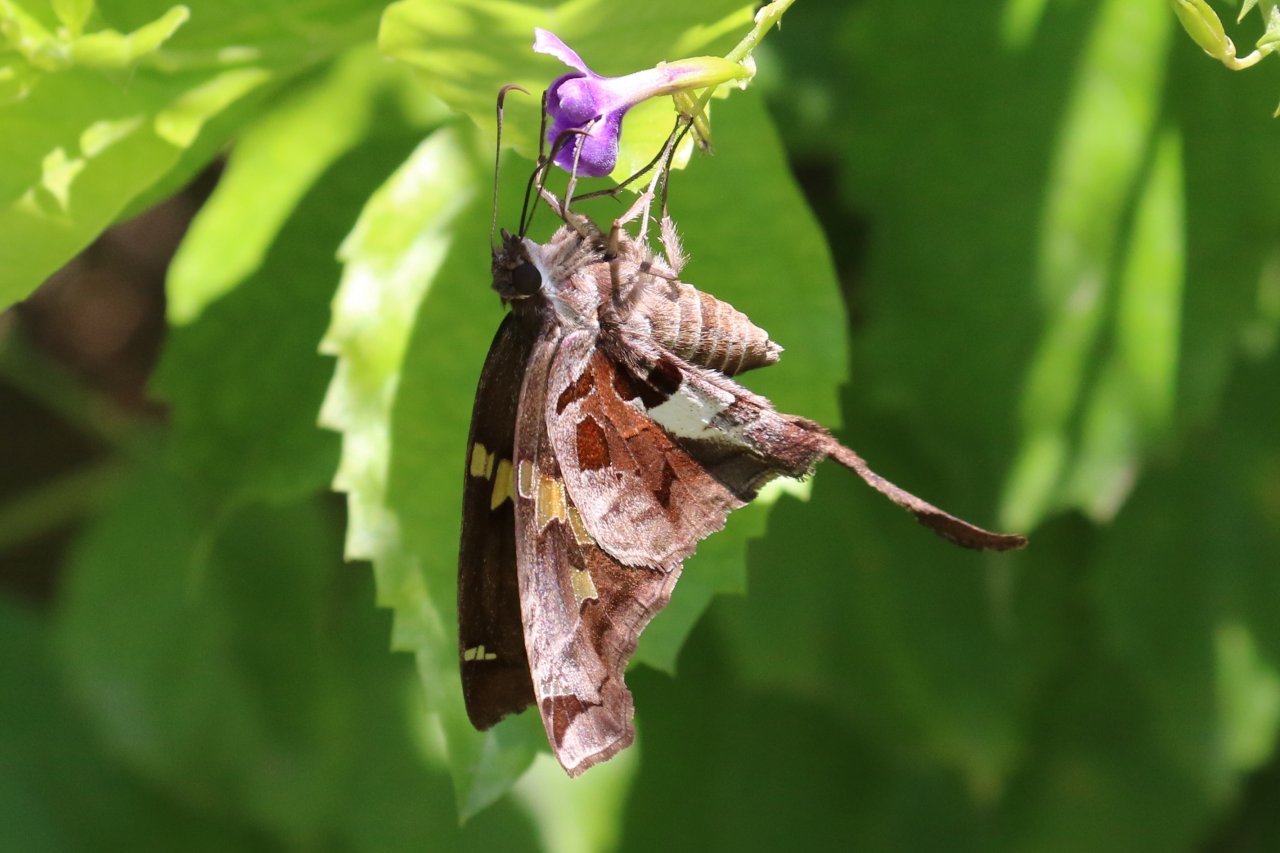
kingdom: Animalia
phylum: Arthropoda
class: Insecta
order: Lepidoptera
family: Hesperiidae
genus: Chioides
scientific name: Chioides zilpa
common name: Zilpa Longtail
